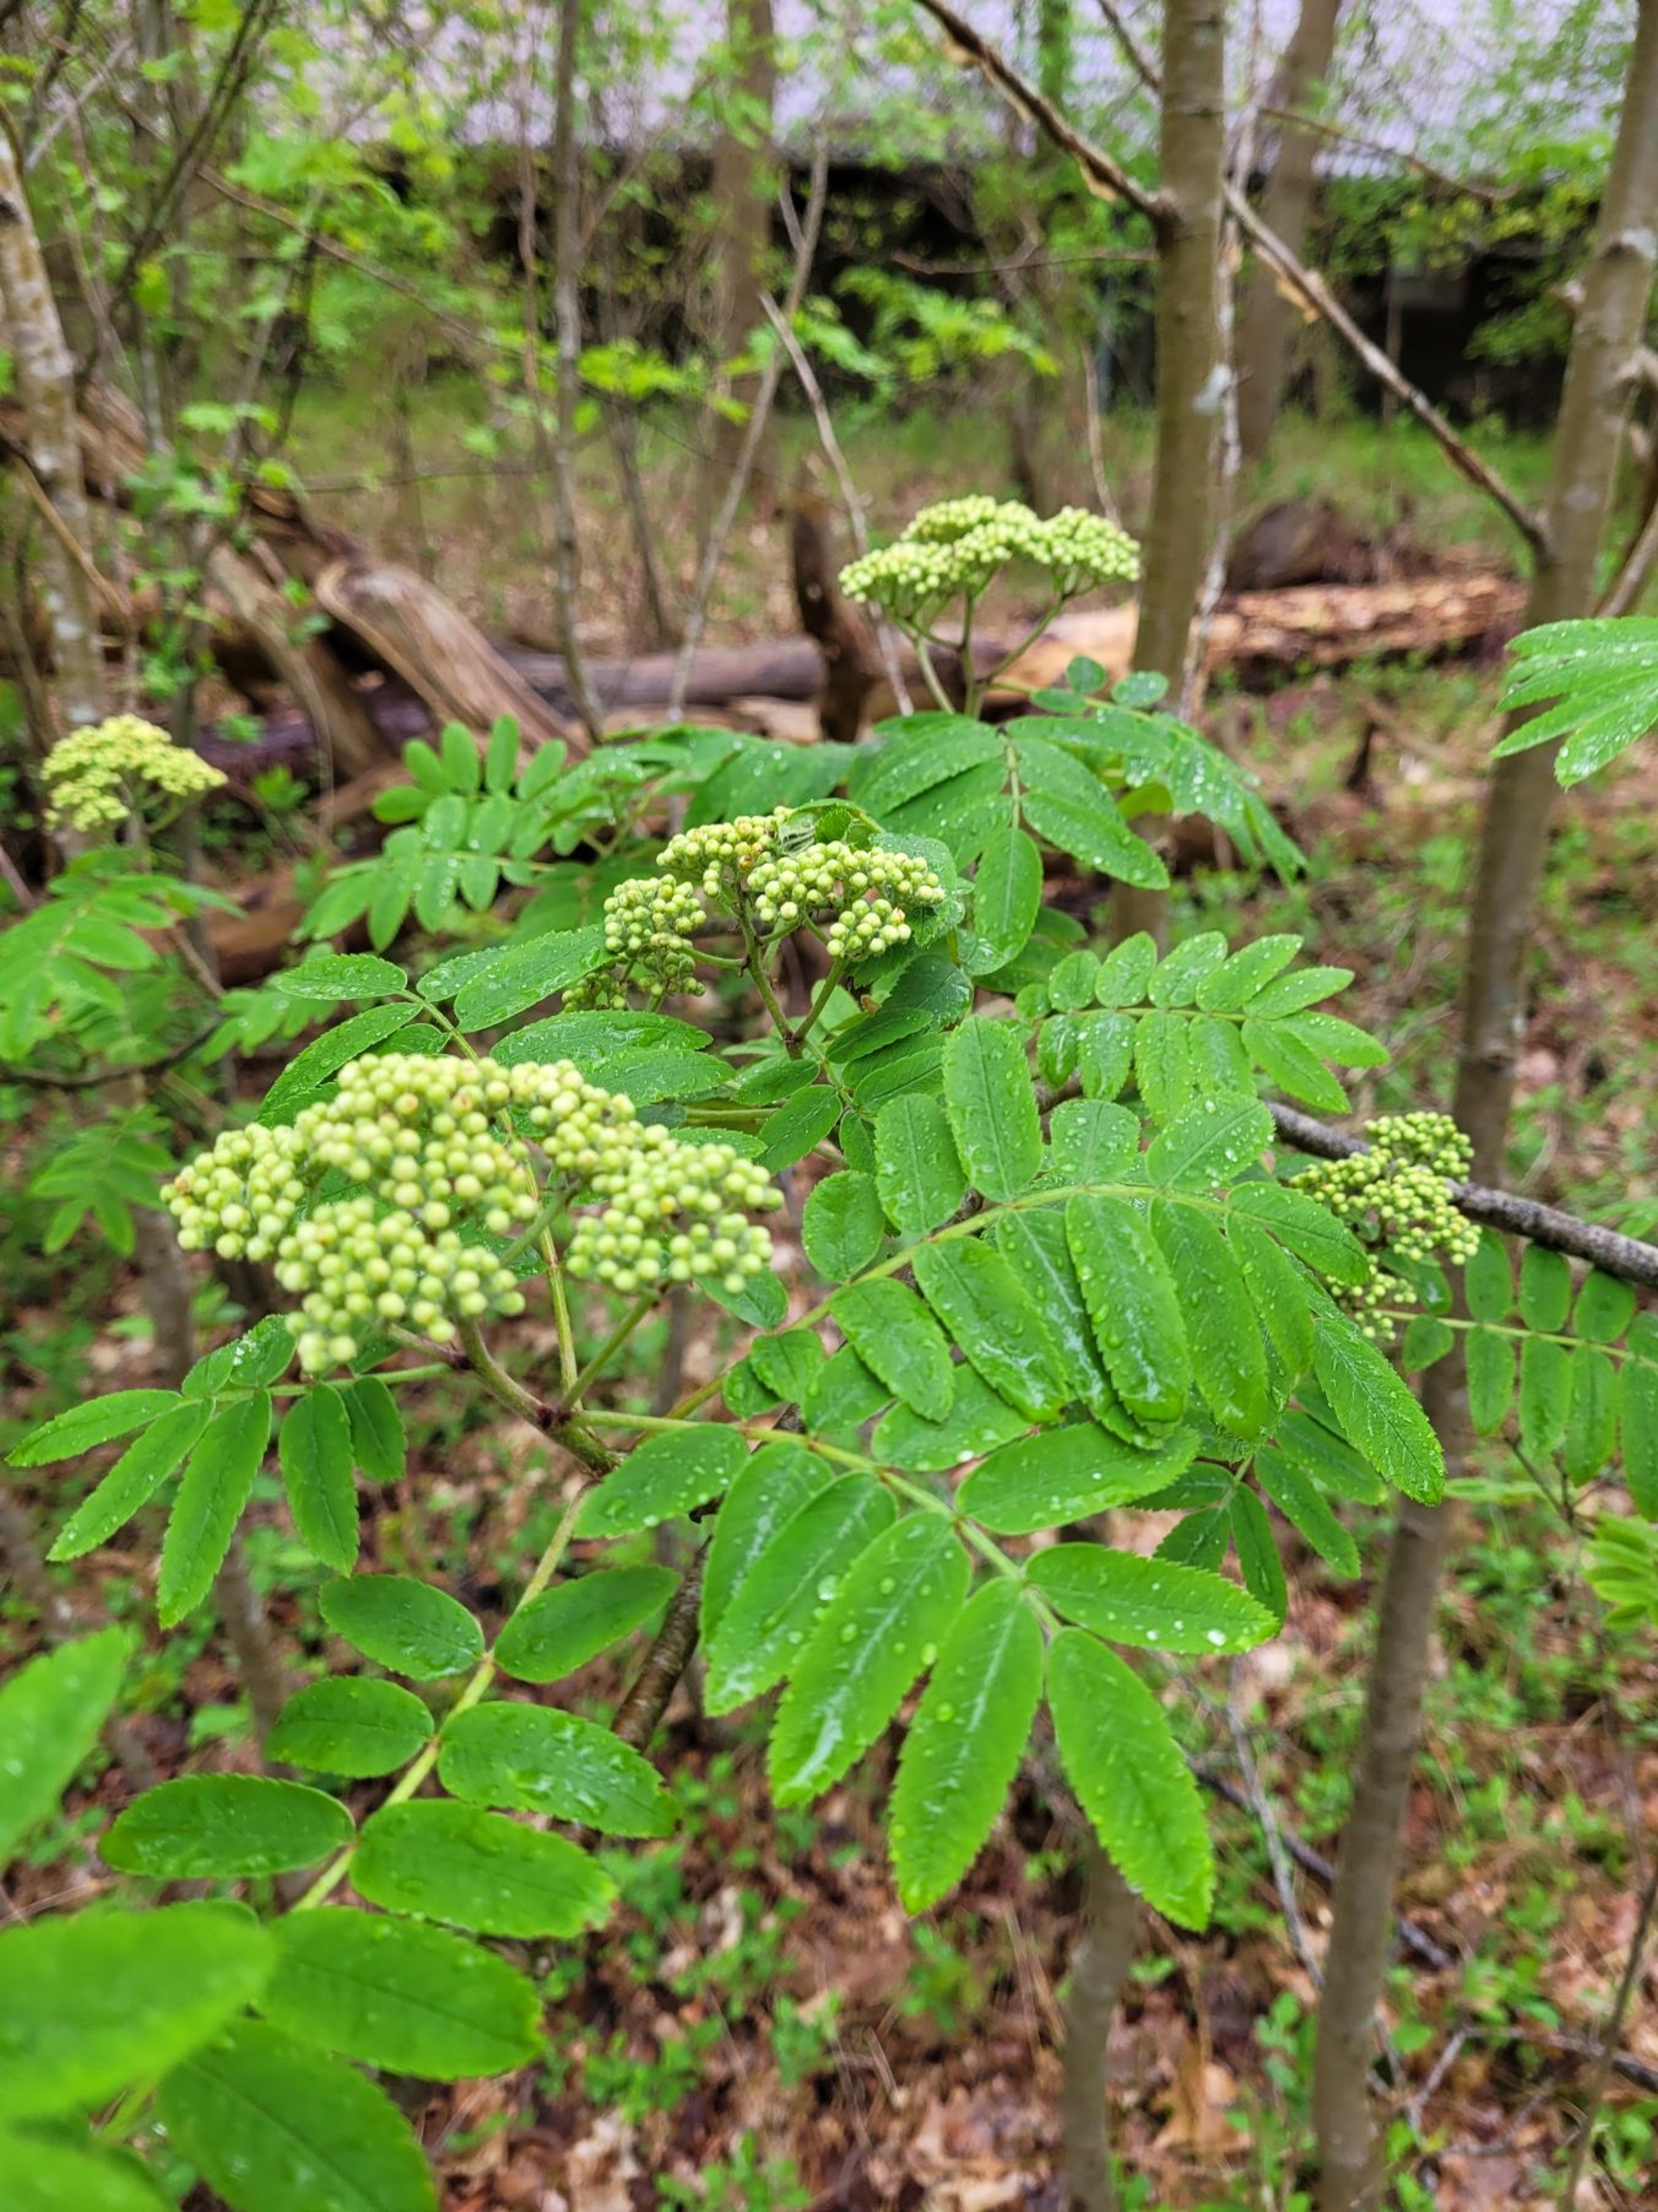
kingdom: Plantae
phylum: Tracheophyta
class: Magnoliopsida
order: Rosales
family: Rosaceae
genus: Sorbus
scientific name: Sorbus aucuparia
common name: Almindelig røn
